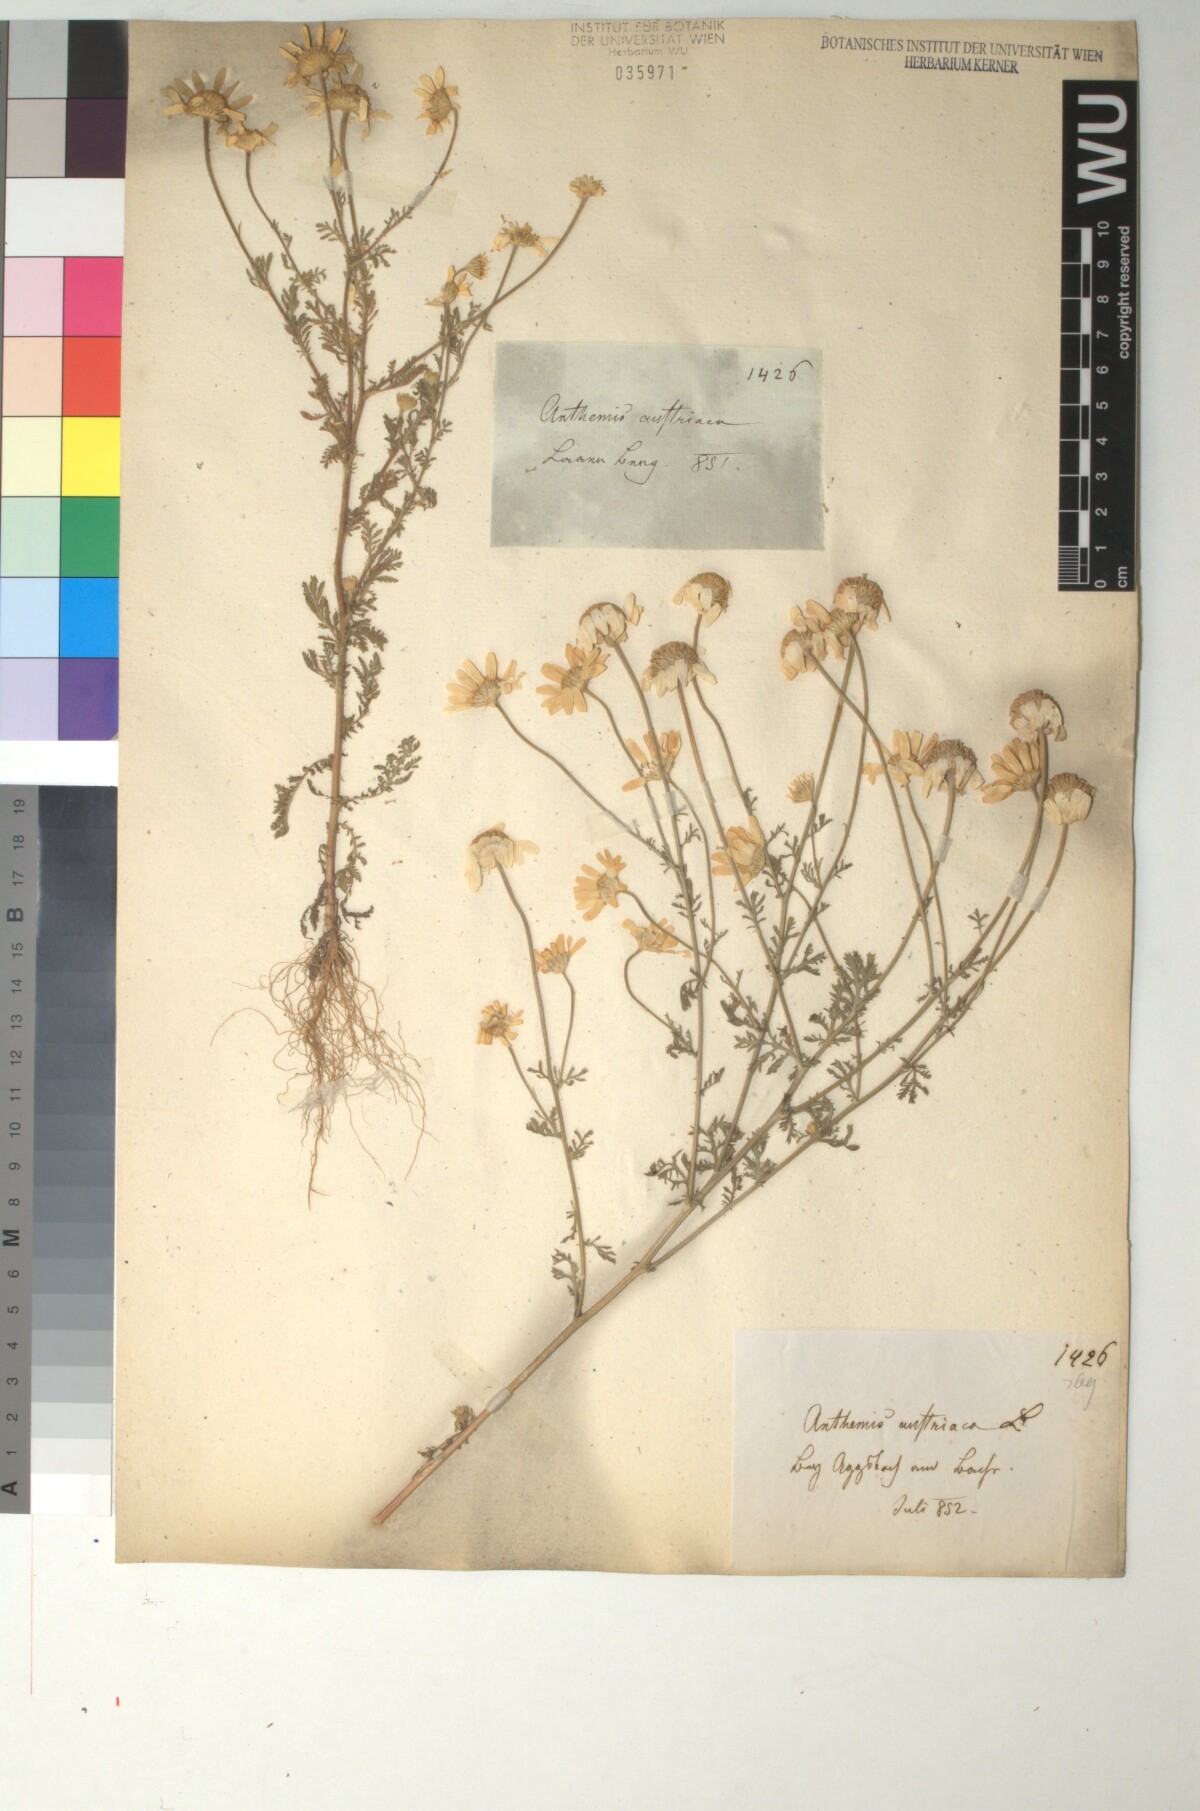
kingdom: Plantae
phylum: Tracheophyta
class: Magnoliopsida
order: Asterales
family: Asteraceae
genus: Cota
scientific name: Cota austriaca
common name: Austrian chamomile
